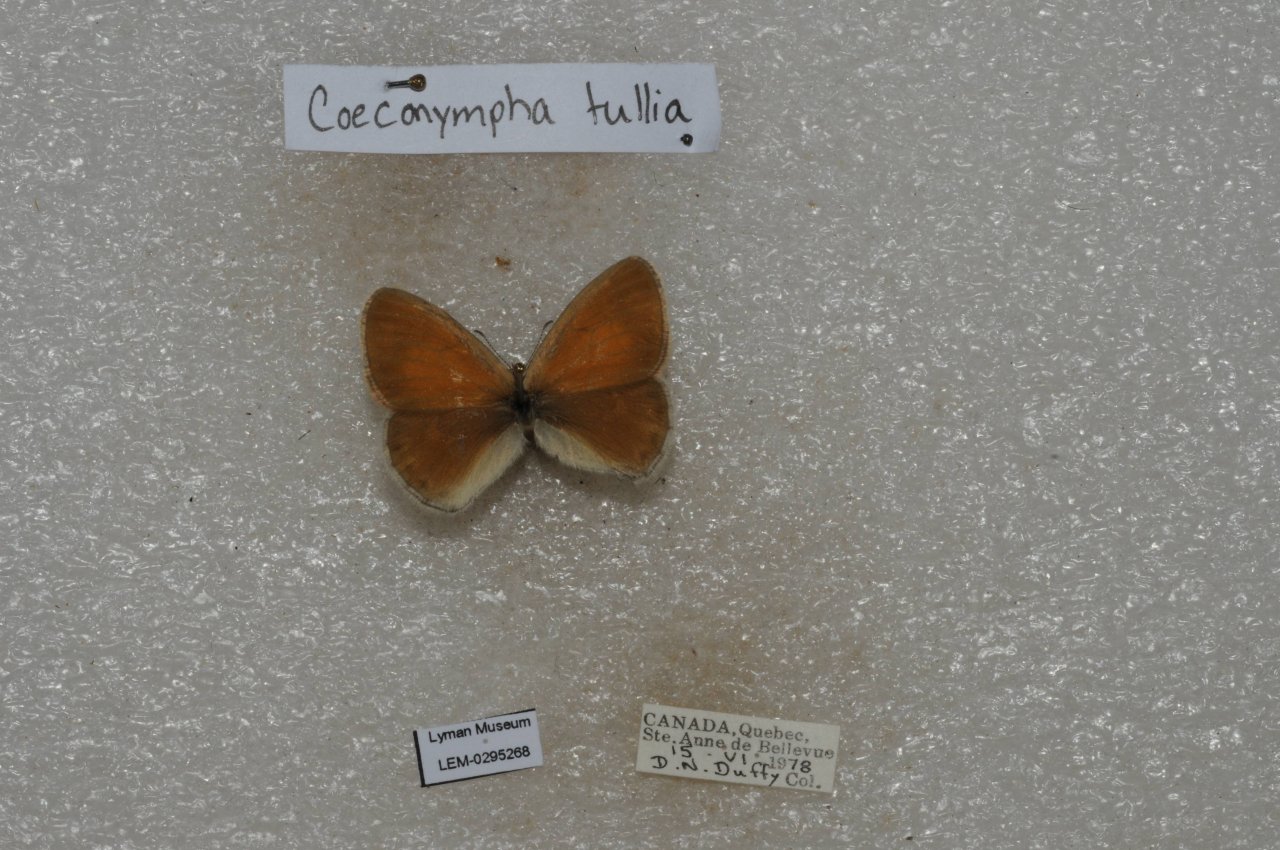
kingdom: Animalia
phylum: Arthropoda
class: Insecta
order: Lepidoptera
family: Nymphalidae
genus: Coenonympha
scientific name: Coenonympha tullia
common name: Large Heath
